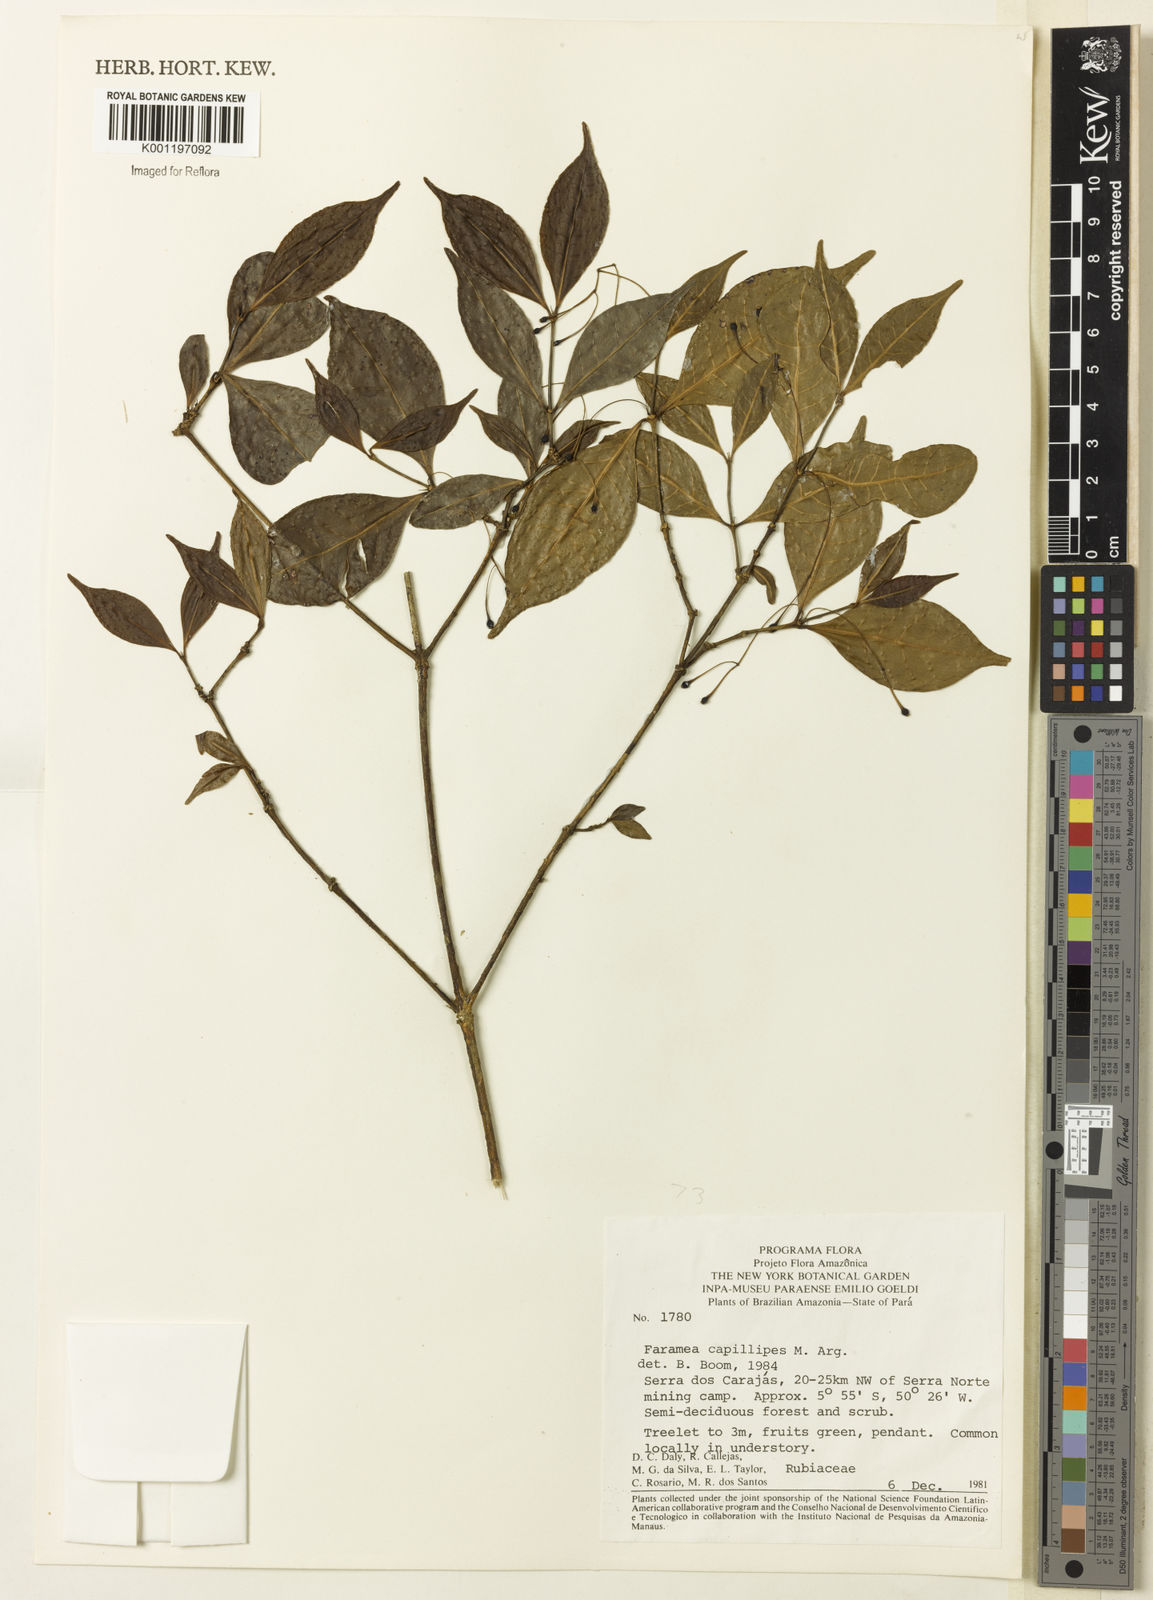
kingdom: Plantae
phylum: Tracheophyta
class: Magnoliopsida
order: Gentianales
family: Rubiaceae
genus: Faramea
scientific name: Faramea
